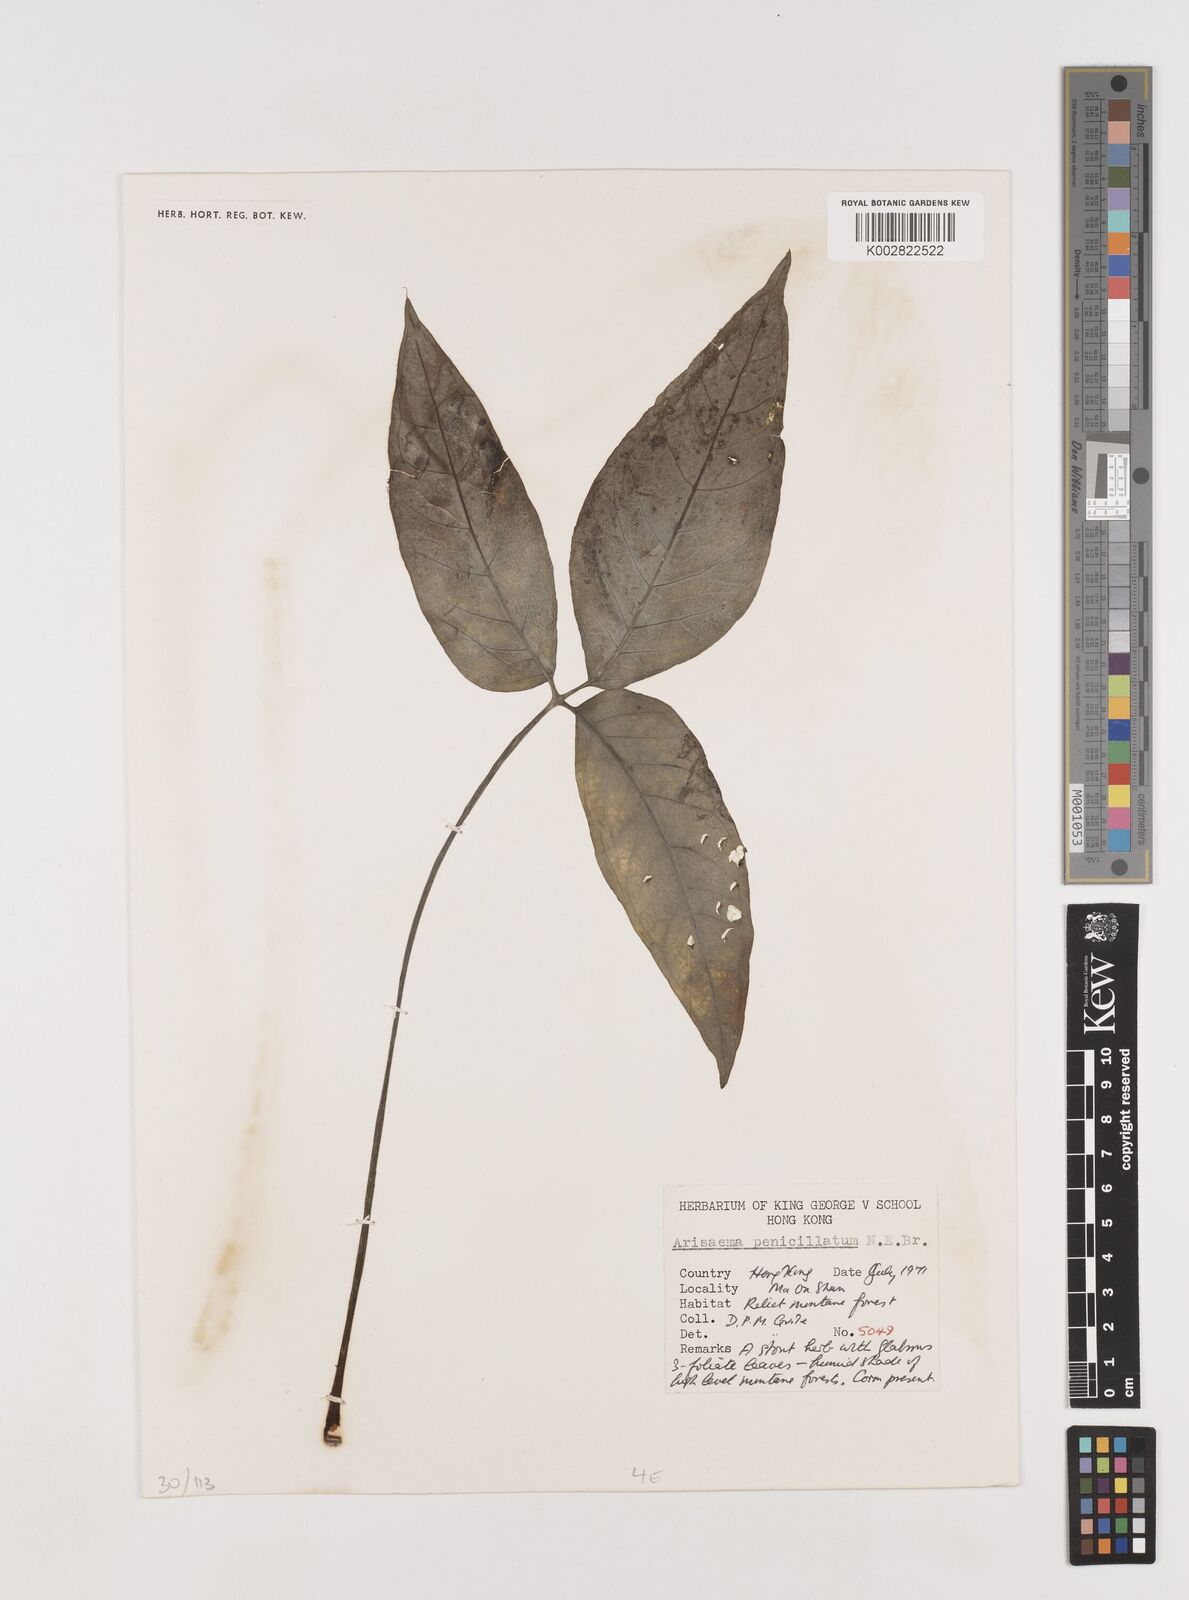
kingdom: Plantae
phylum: Tracheophyta
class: Liliopsida
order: Alismatales
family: Araceae
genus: Arisaema
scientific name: Arisaema penicillatum
